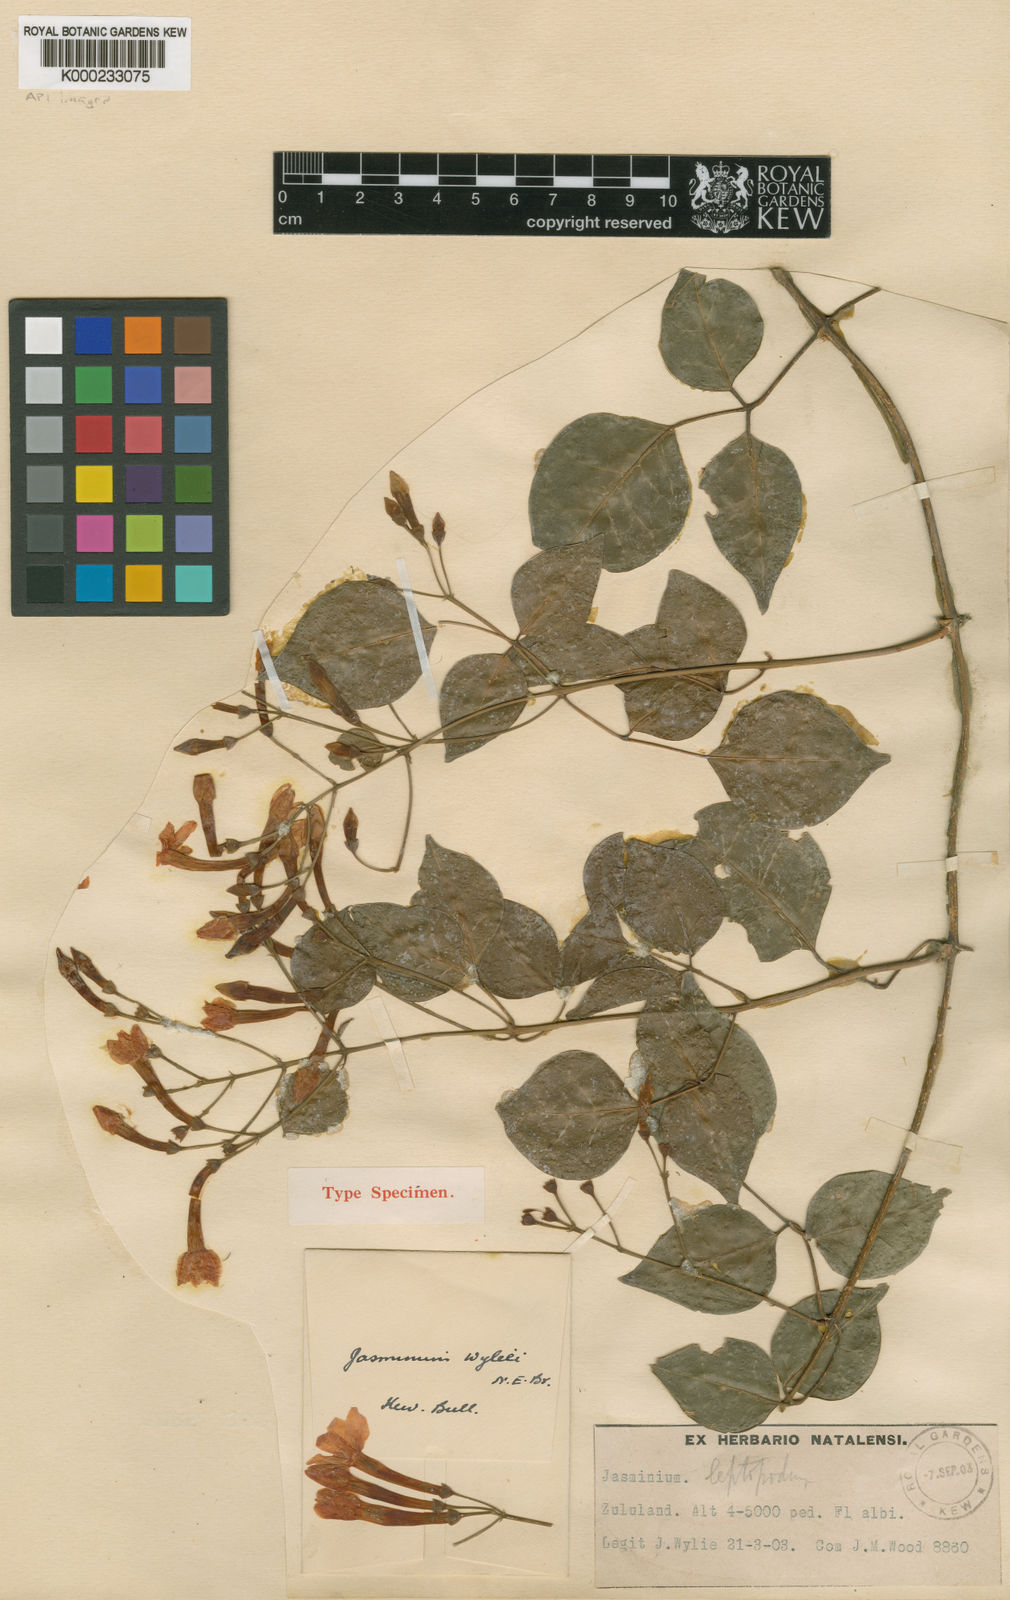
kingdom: Plantae
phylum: Tracheophyta
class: Magnoliopsida
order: Lamiales
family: Oleaceae
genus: Jasminum
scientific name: Jasminum abyssinicum
